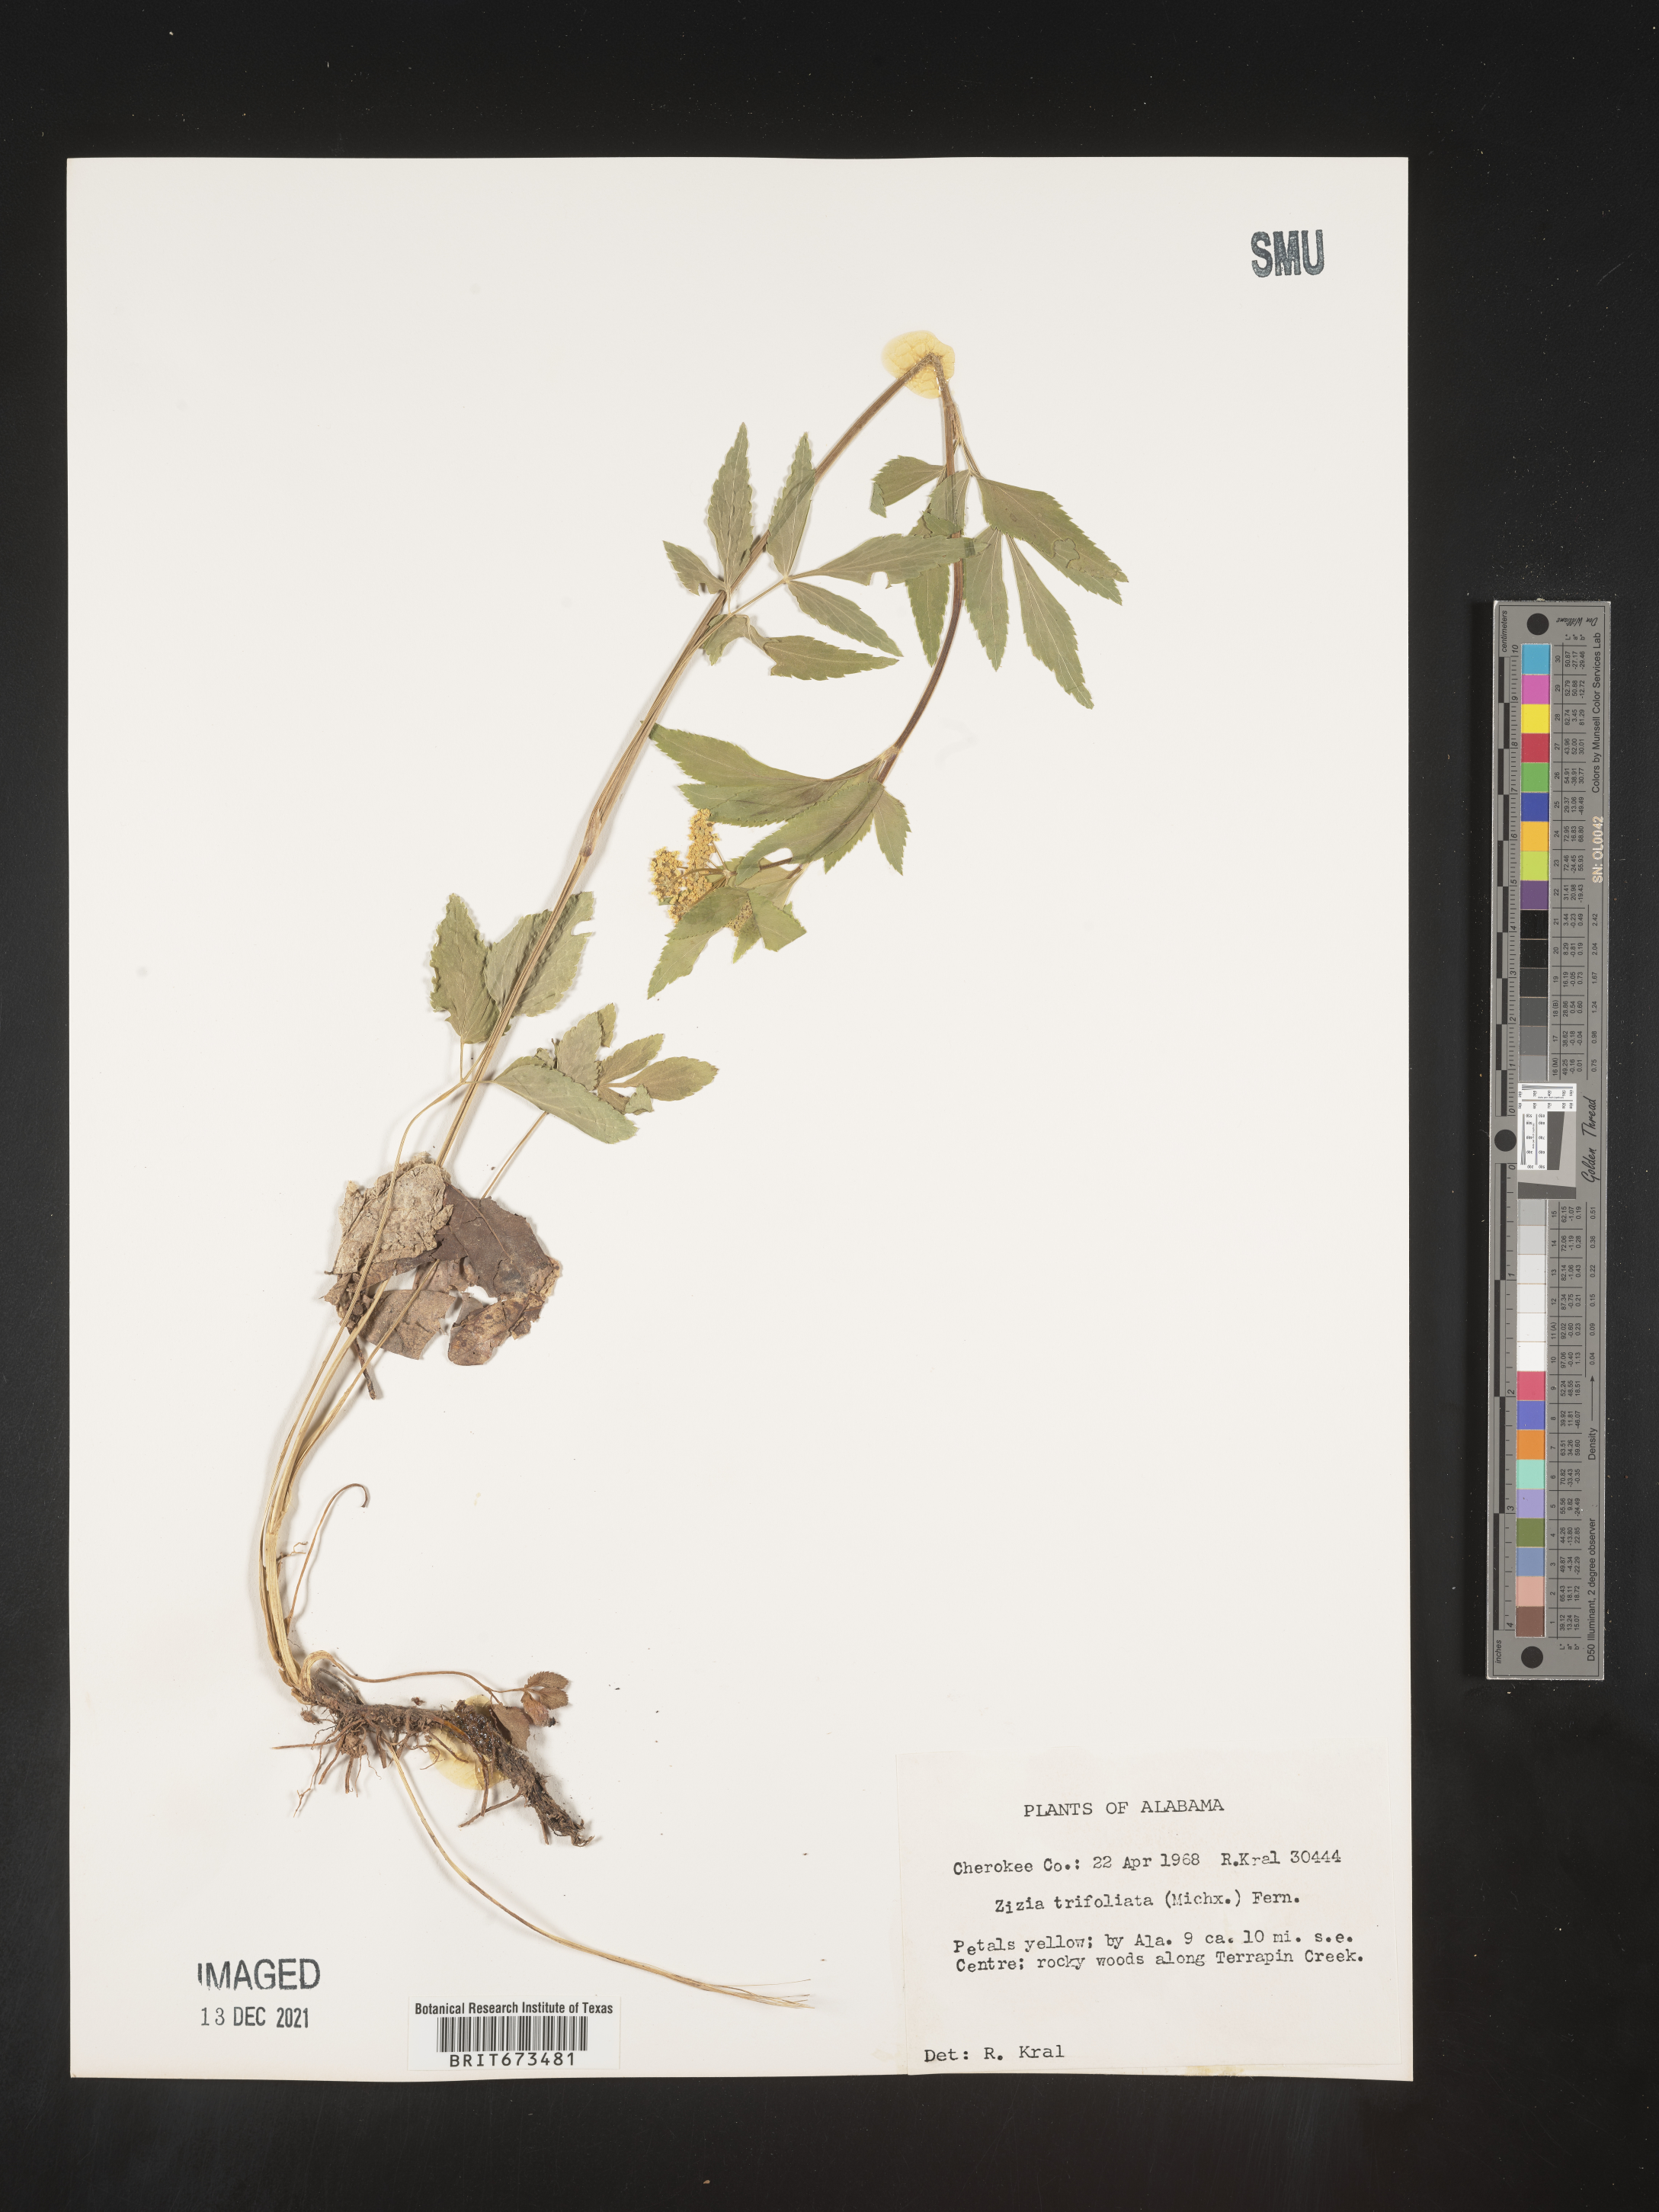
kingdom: Plantae
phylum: Tracheophyta
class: Magnoliopsida
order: Apiales
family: Apiaceae
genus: Zizia
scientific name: Zizia trifoliata
